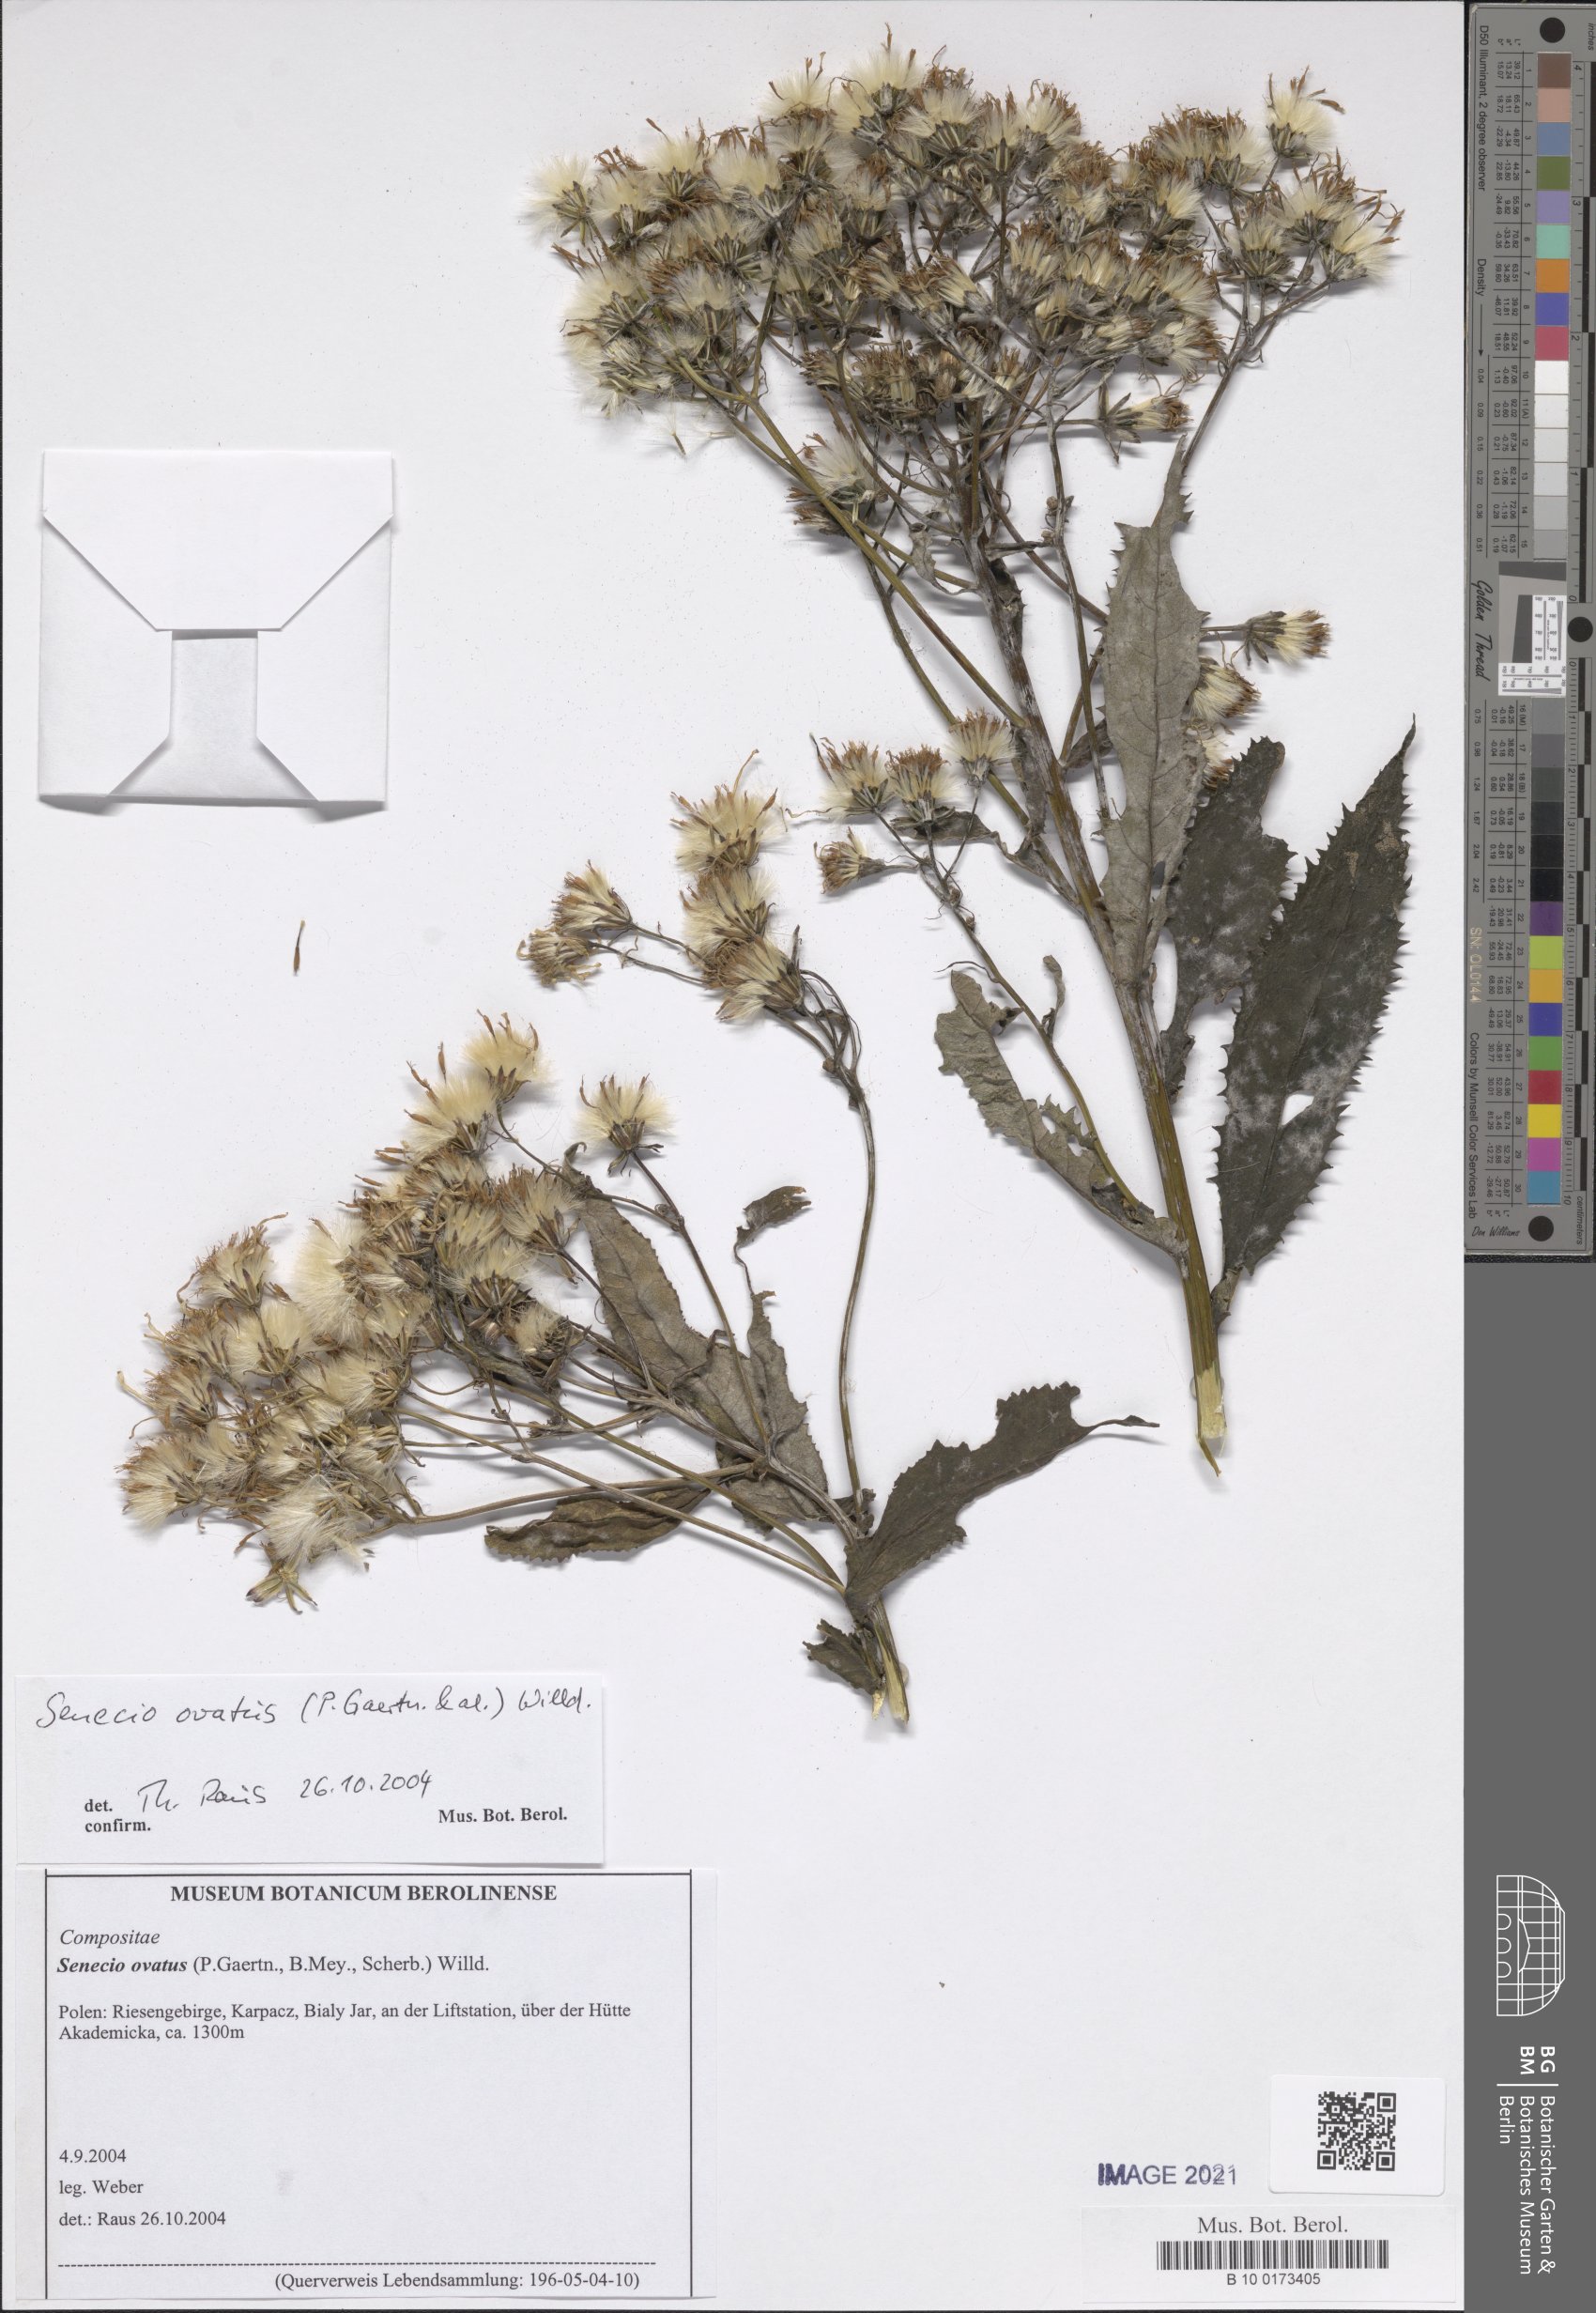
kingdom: Plantae
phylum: Tracheophyta
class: Magnoliopsida
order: Asterales
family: Asteraceae
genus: Senecio
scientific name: Senecio ovatus
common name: Wood ragwort
